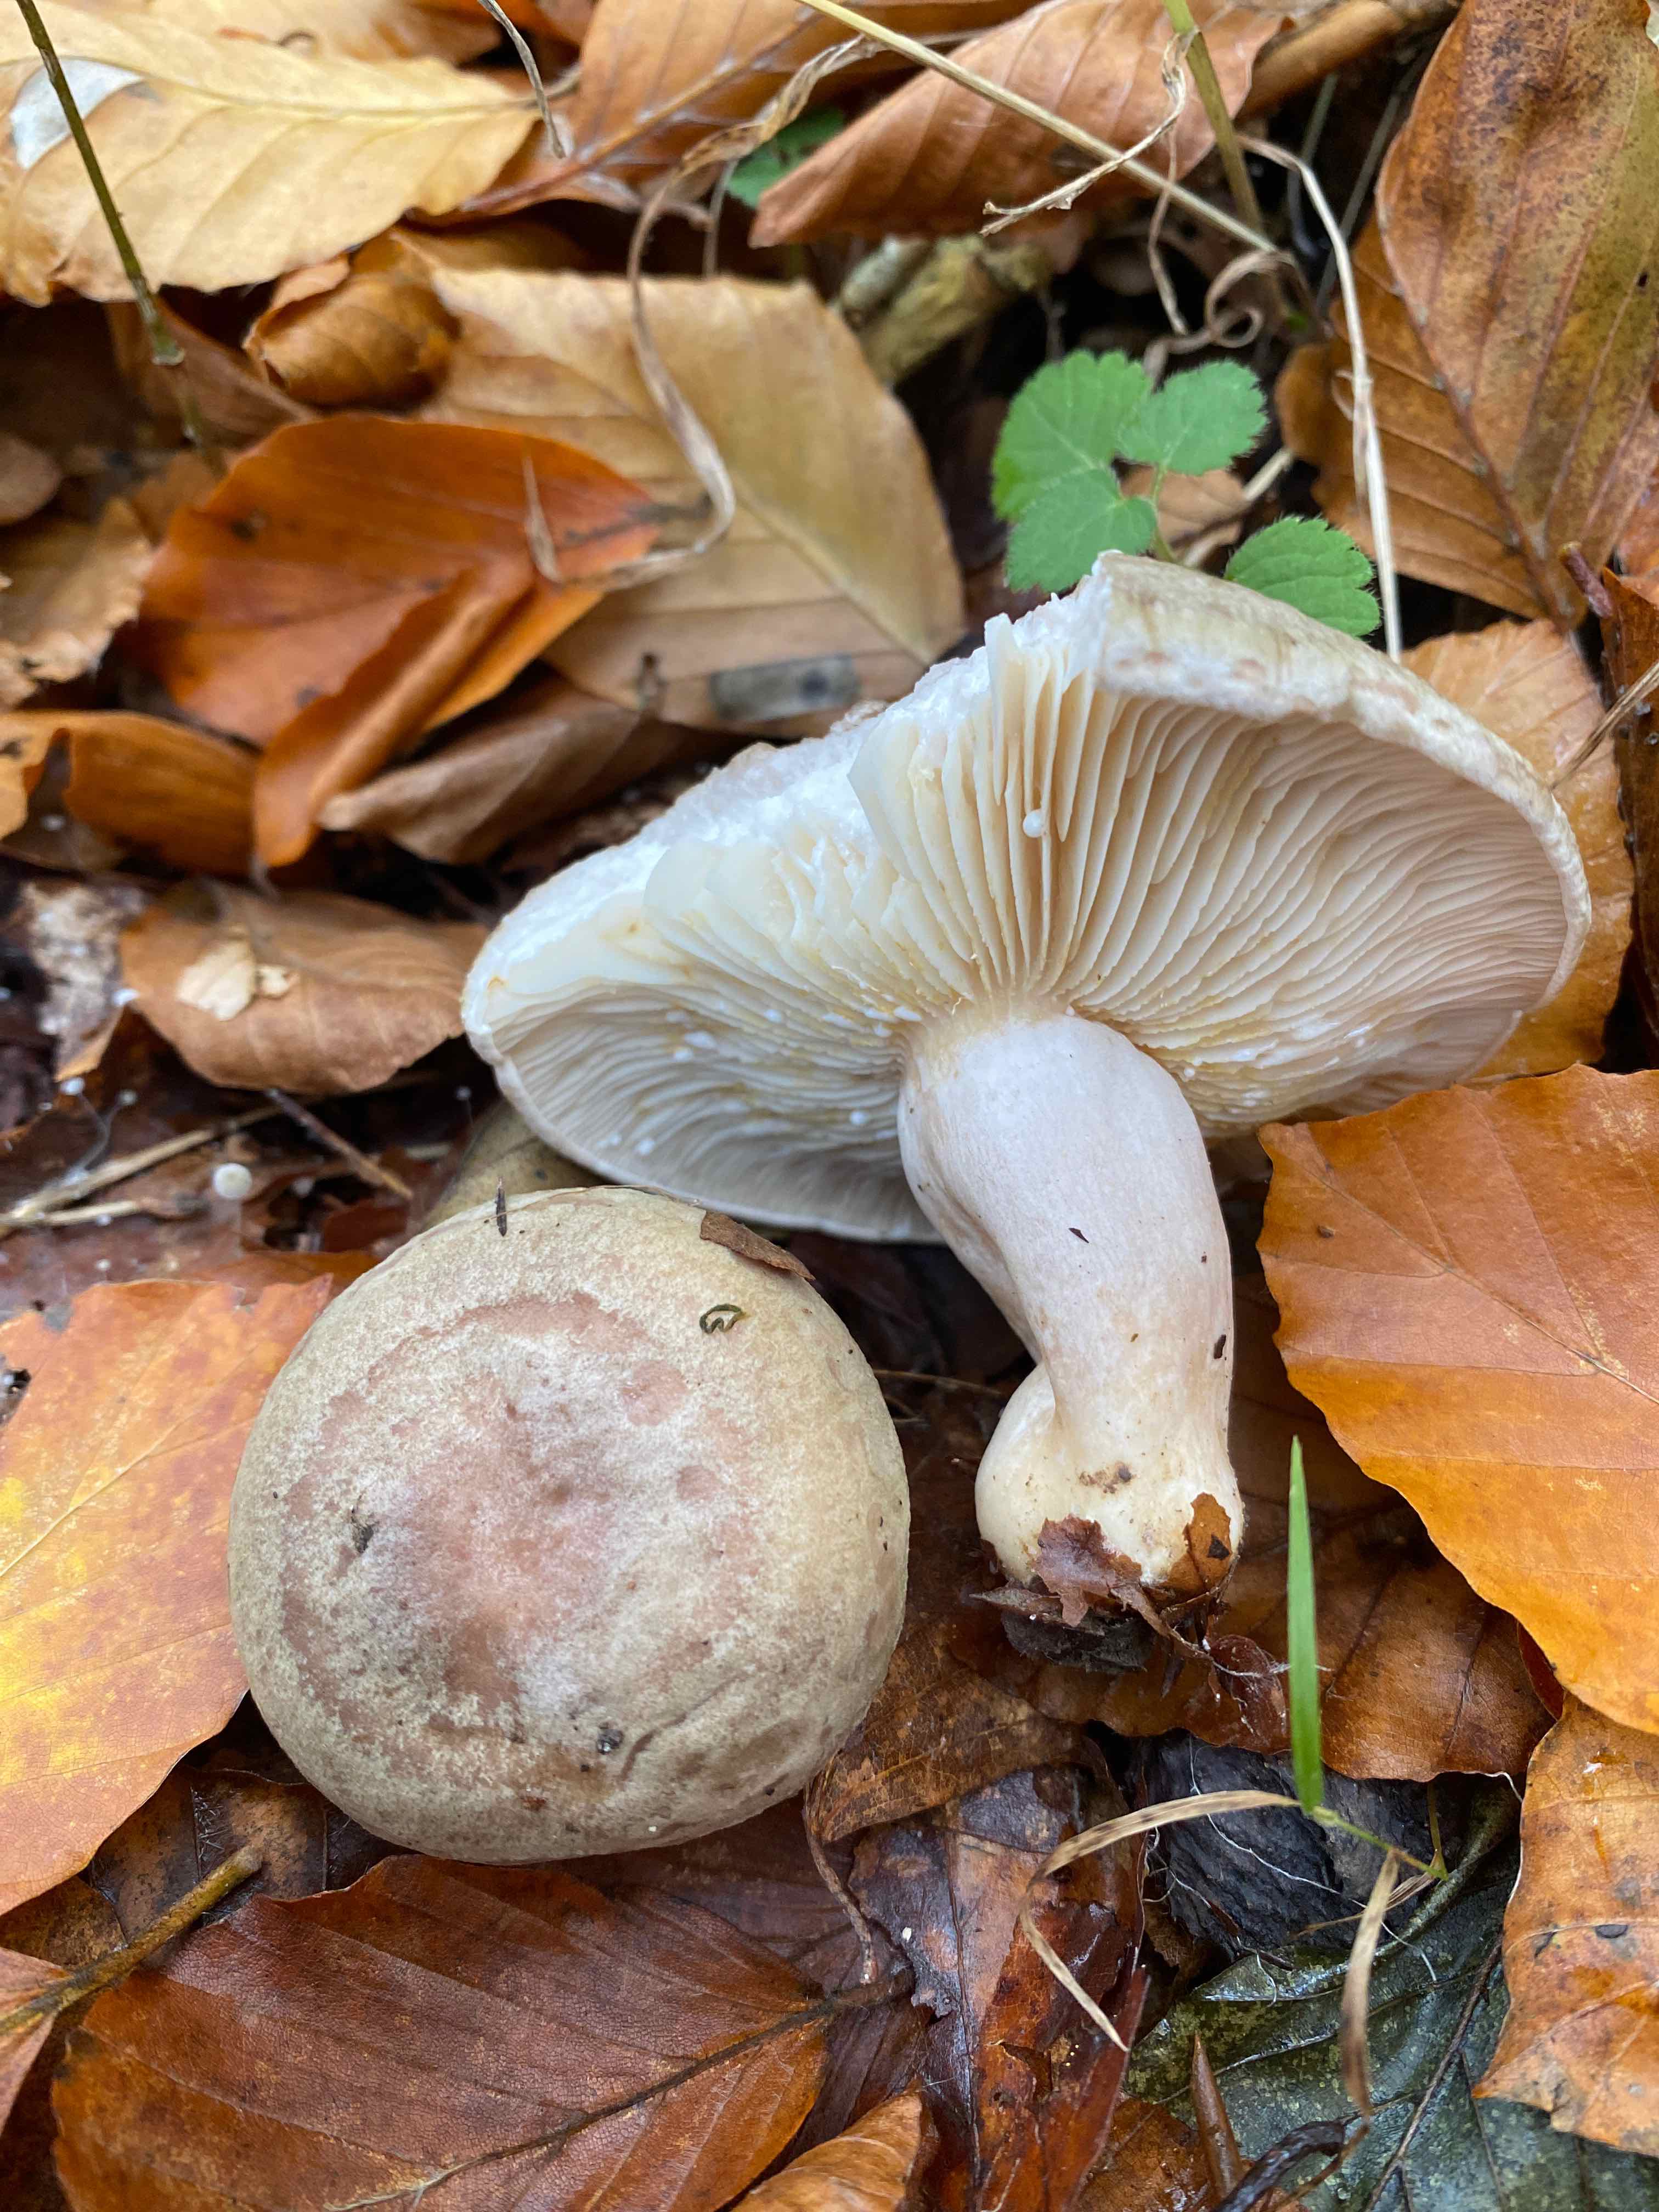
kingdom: Fungi
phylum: Basidiomycota
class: Agaricomycetes
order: Russulales
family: Russulaceae
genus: Lactarius
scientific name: Lactarius blennius
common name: dråbeplettet mælkehat
